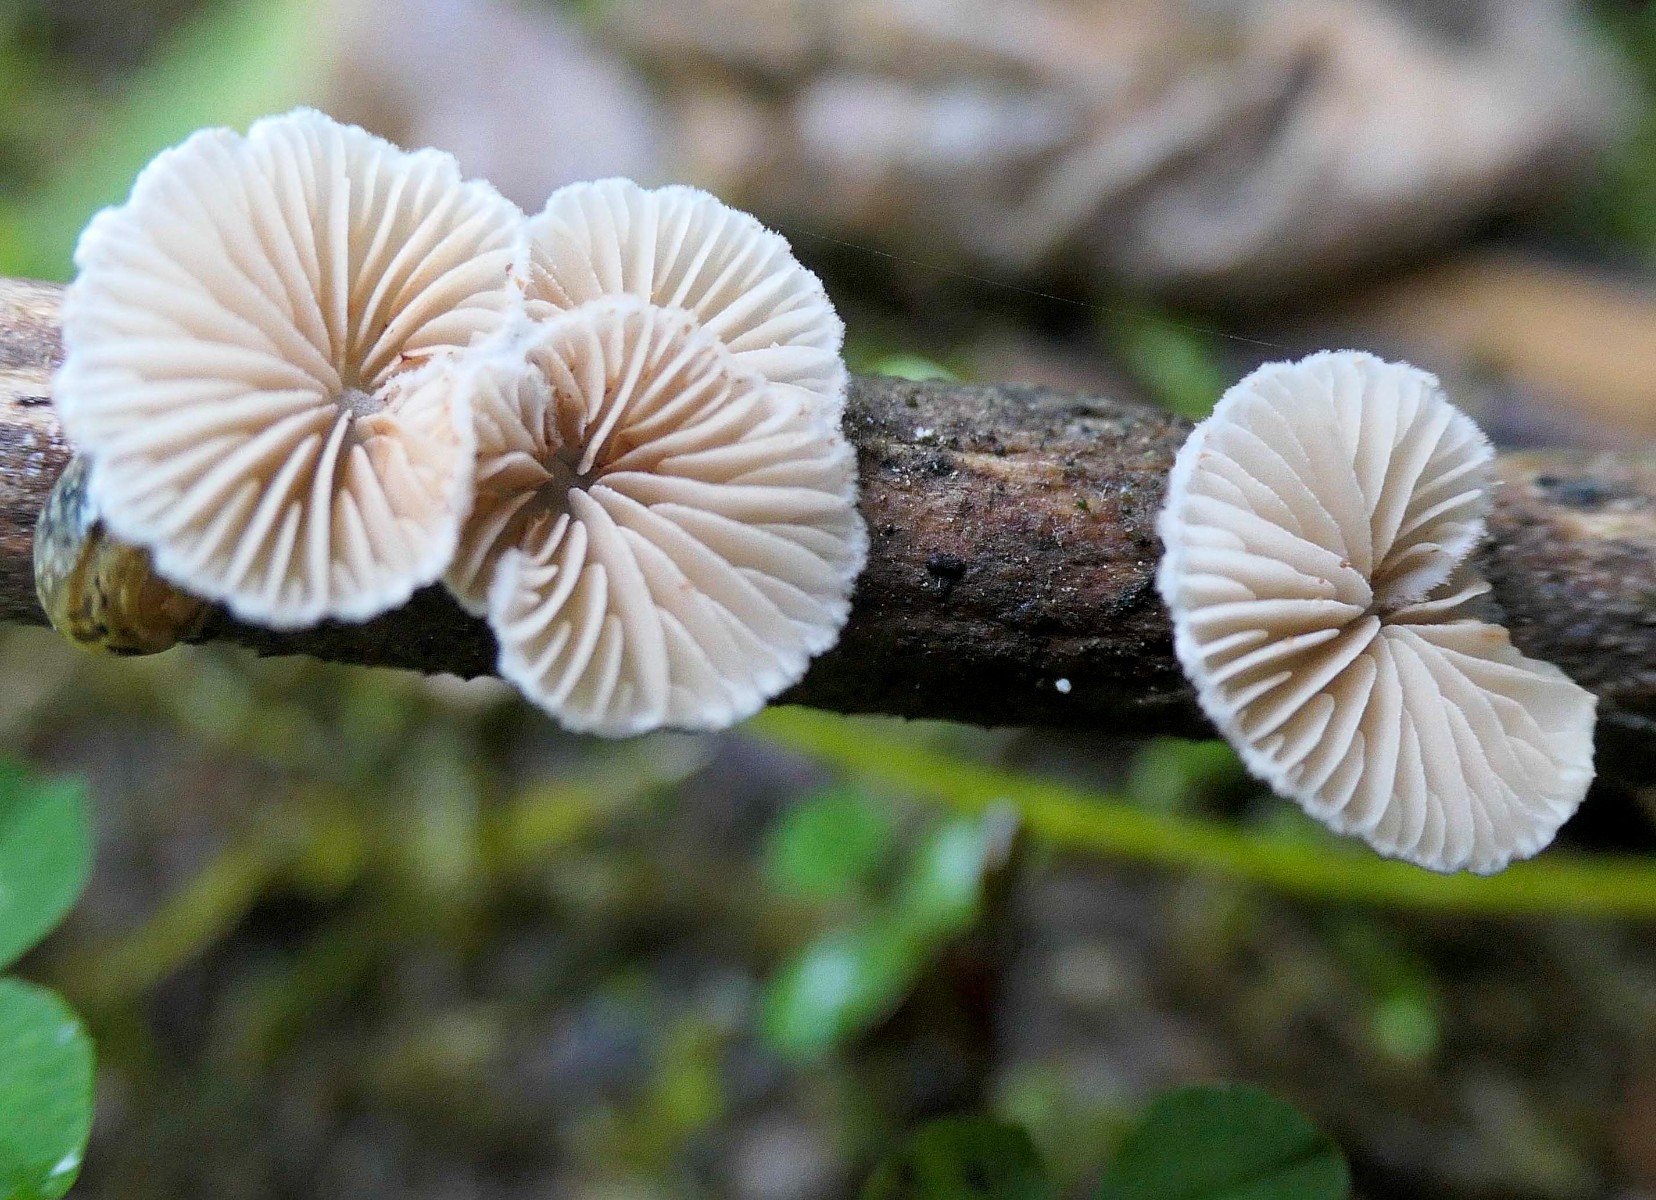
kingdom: Fungi
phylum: Basidiomycota
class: Agaricomycetes
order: Agaricales
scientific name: Agaricales
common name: champignonordenen
